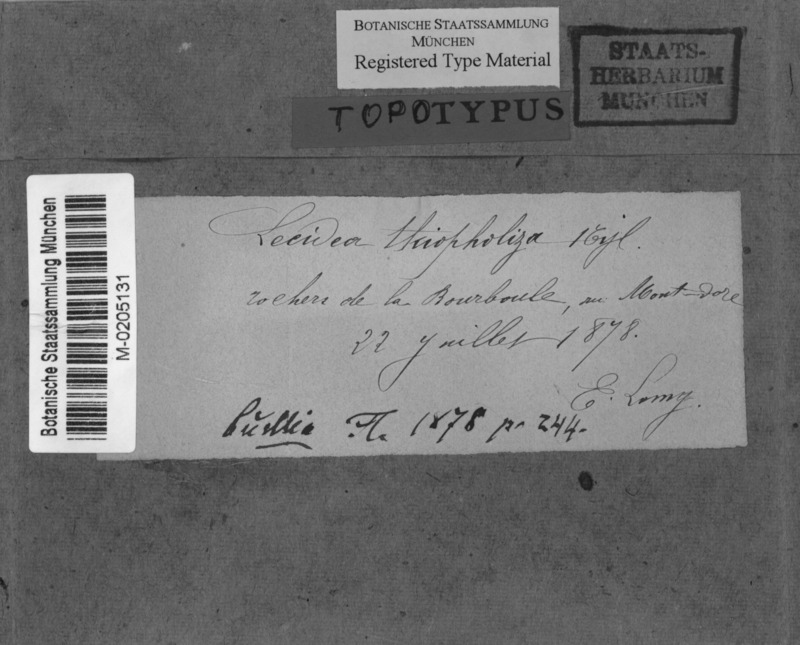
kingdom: Fungi
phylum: Ascomycota
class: Lecanoromycetes
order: Caliciales
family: Caliciaceae
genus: Tetramelas
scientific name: Tetramelas thiopolizus
